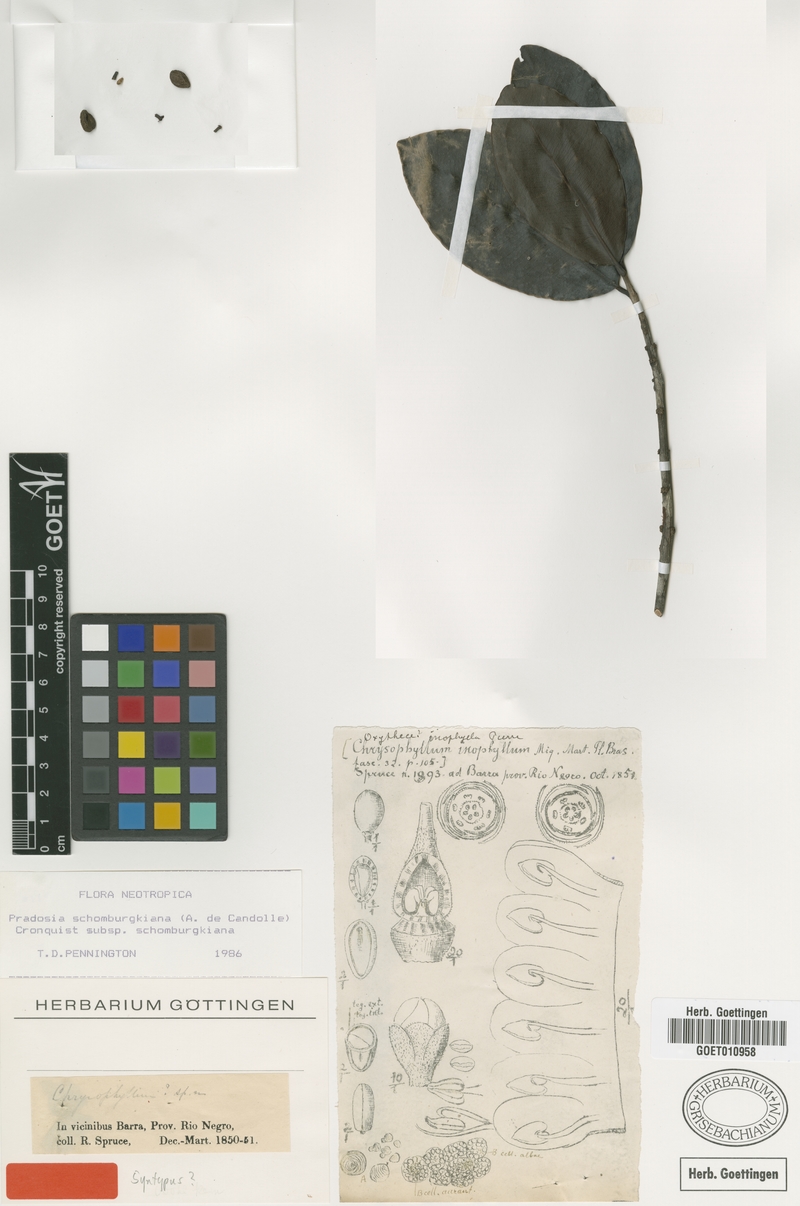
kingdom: Plantae
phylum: Tracheophyta
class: Magnoliopsida
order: Ericales
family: Sapotaceae
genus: Pradosia
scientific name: Pradosia schomburgkiana
